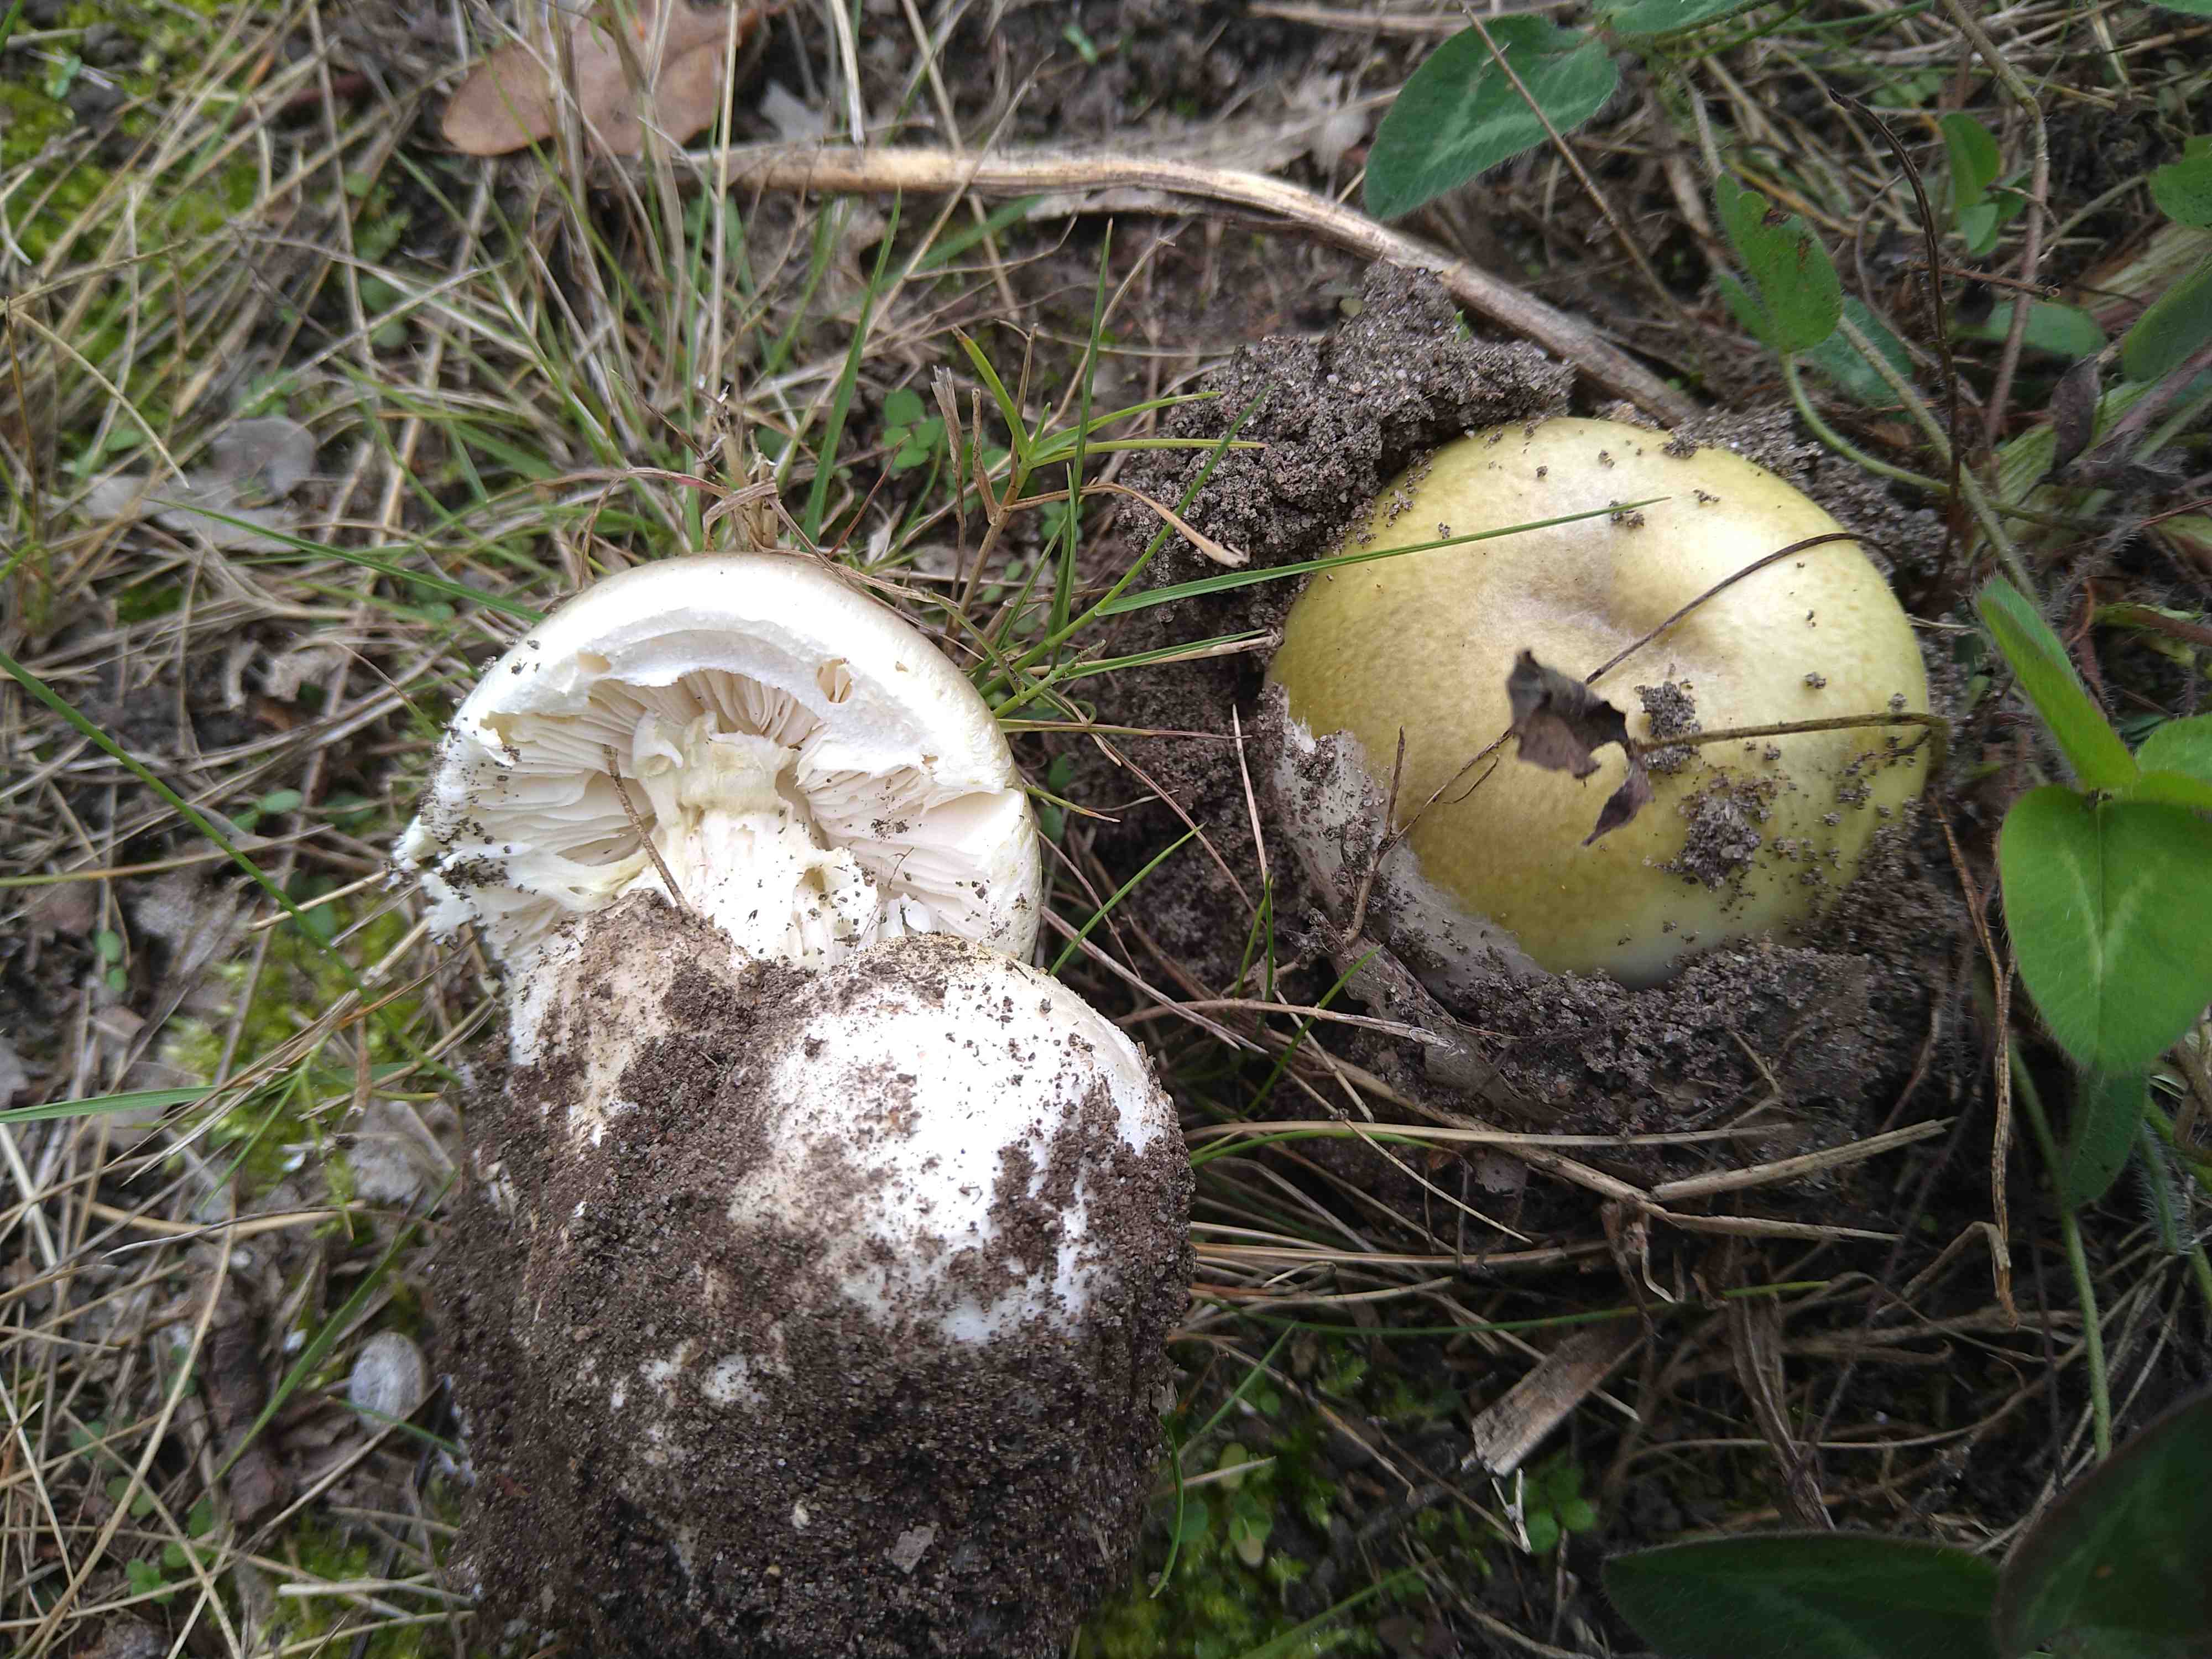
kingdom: Fungi
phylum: Basidiomycota
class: Agaricomycetes
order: Agaricales
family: Amanitaceae
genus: Amanita
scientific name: Amanita phalloides
